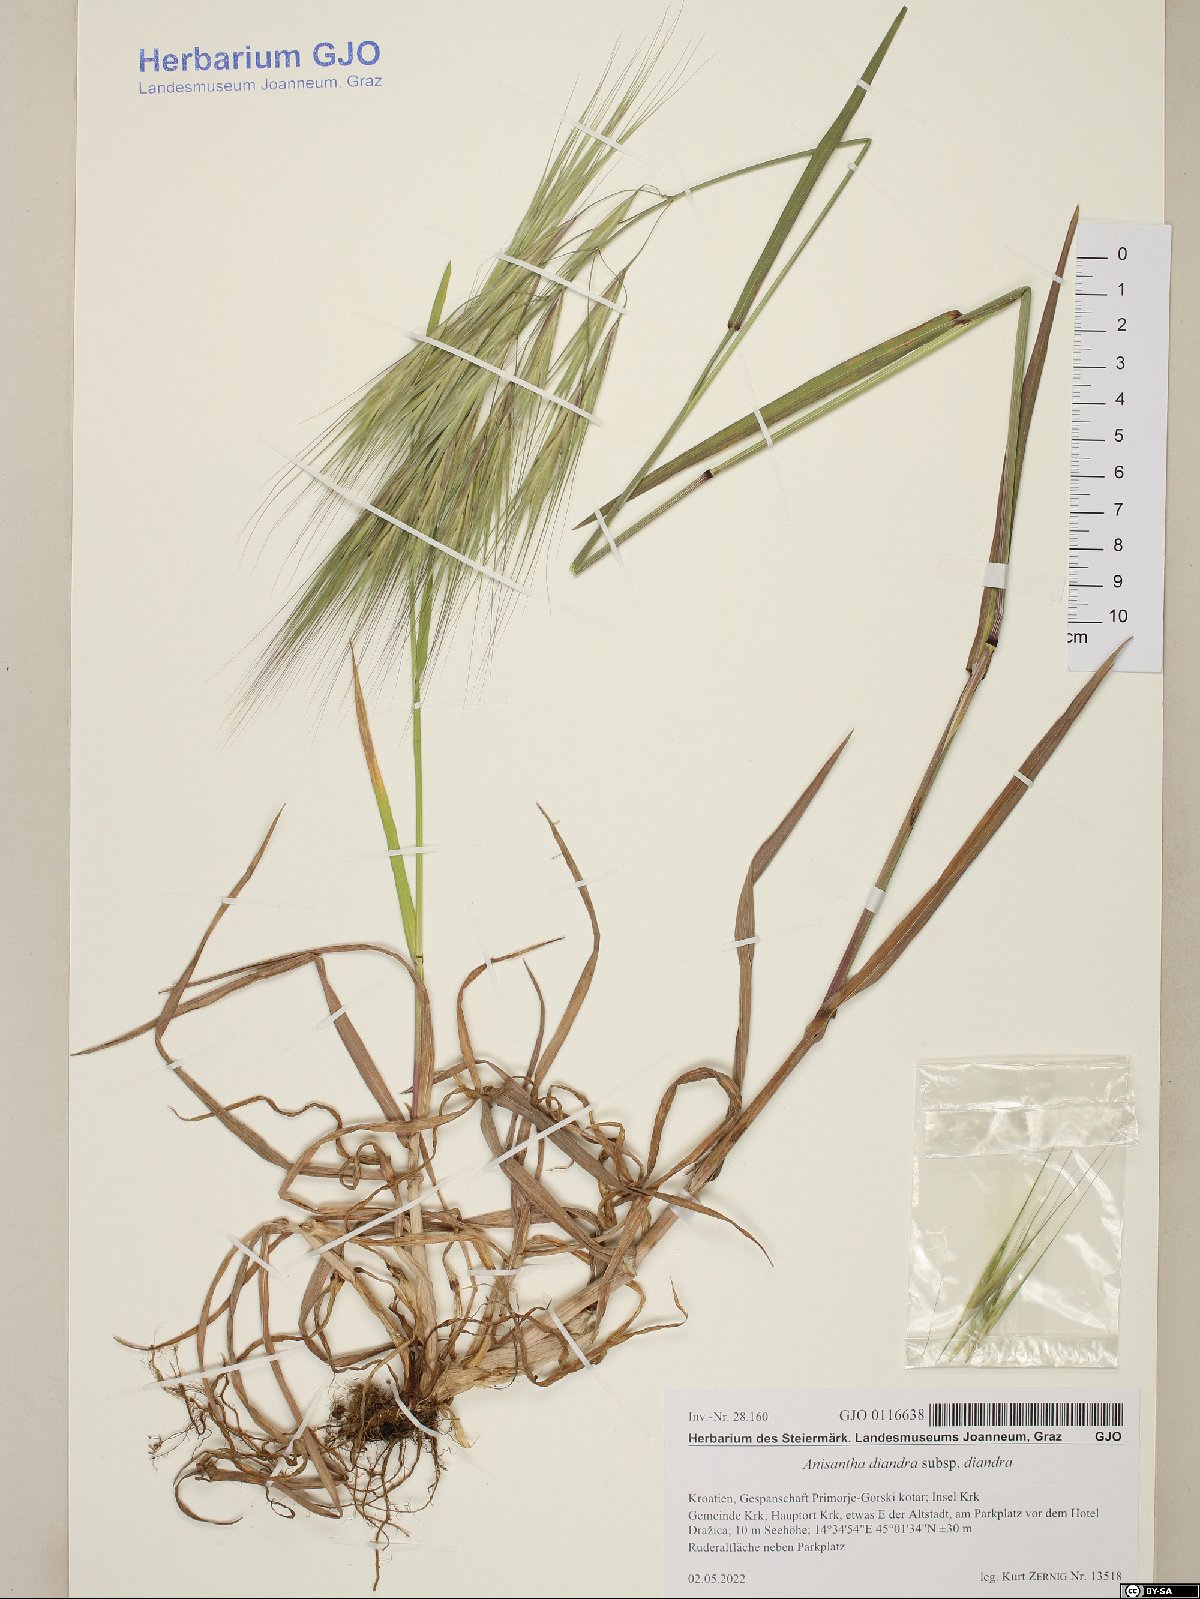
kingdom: Plantae
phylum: Tracheophyta
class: Liliopsida
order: Poales
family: Poaceae
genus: Bromus
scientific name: Bromus diandrus
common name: Ripgut brome
